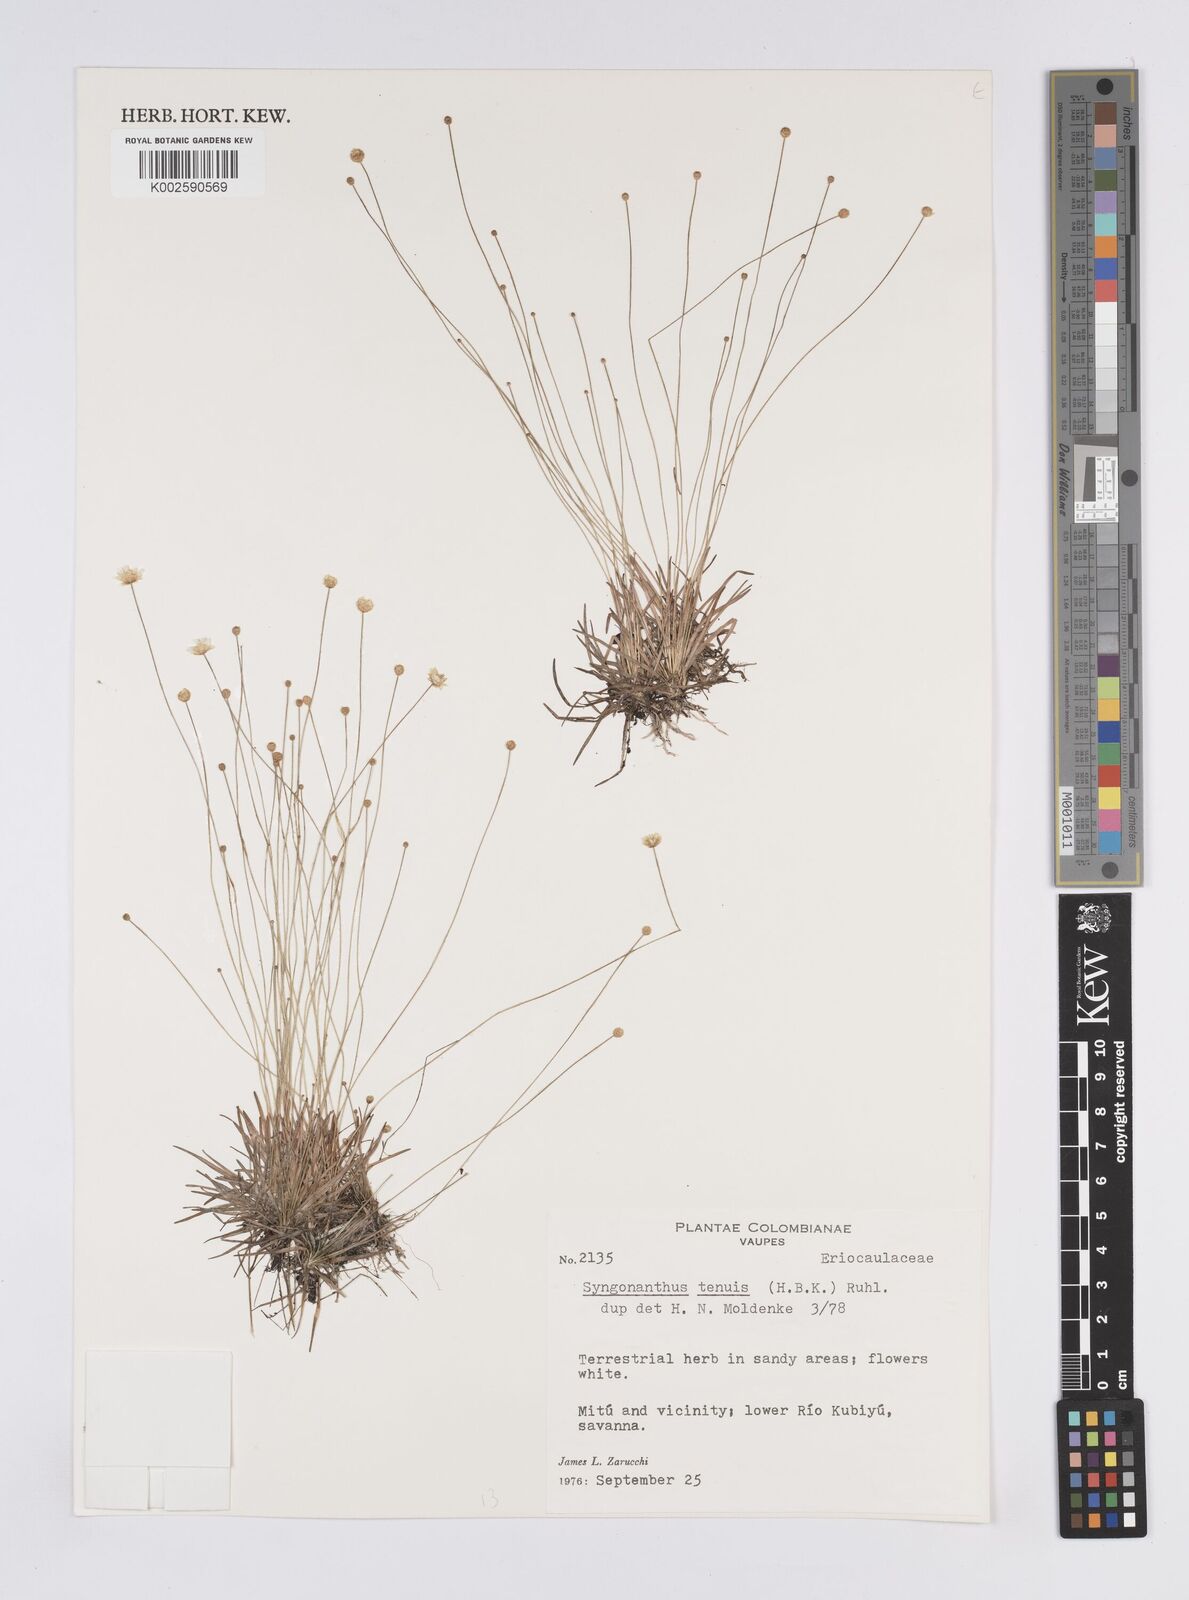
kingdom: Plantae
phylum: Tracheophyta
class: Liliopsida
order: Poales
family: Eriocaulaceae
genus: Syngonanthus
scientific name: Syngonanthus tenuis
